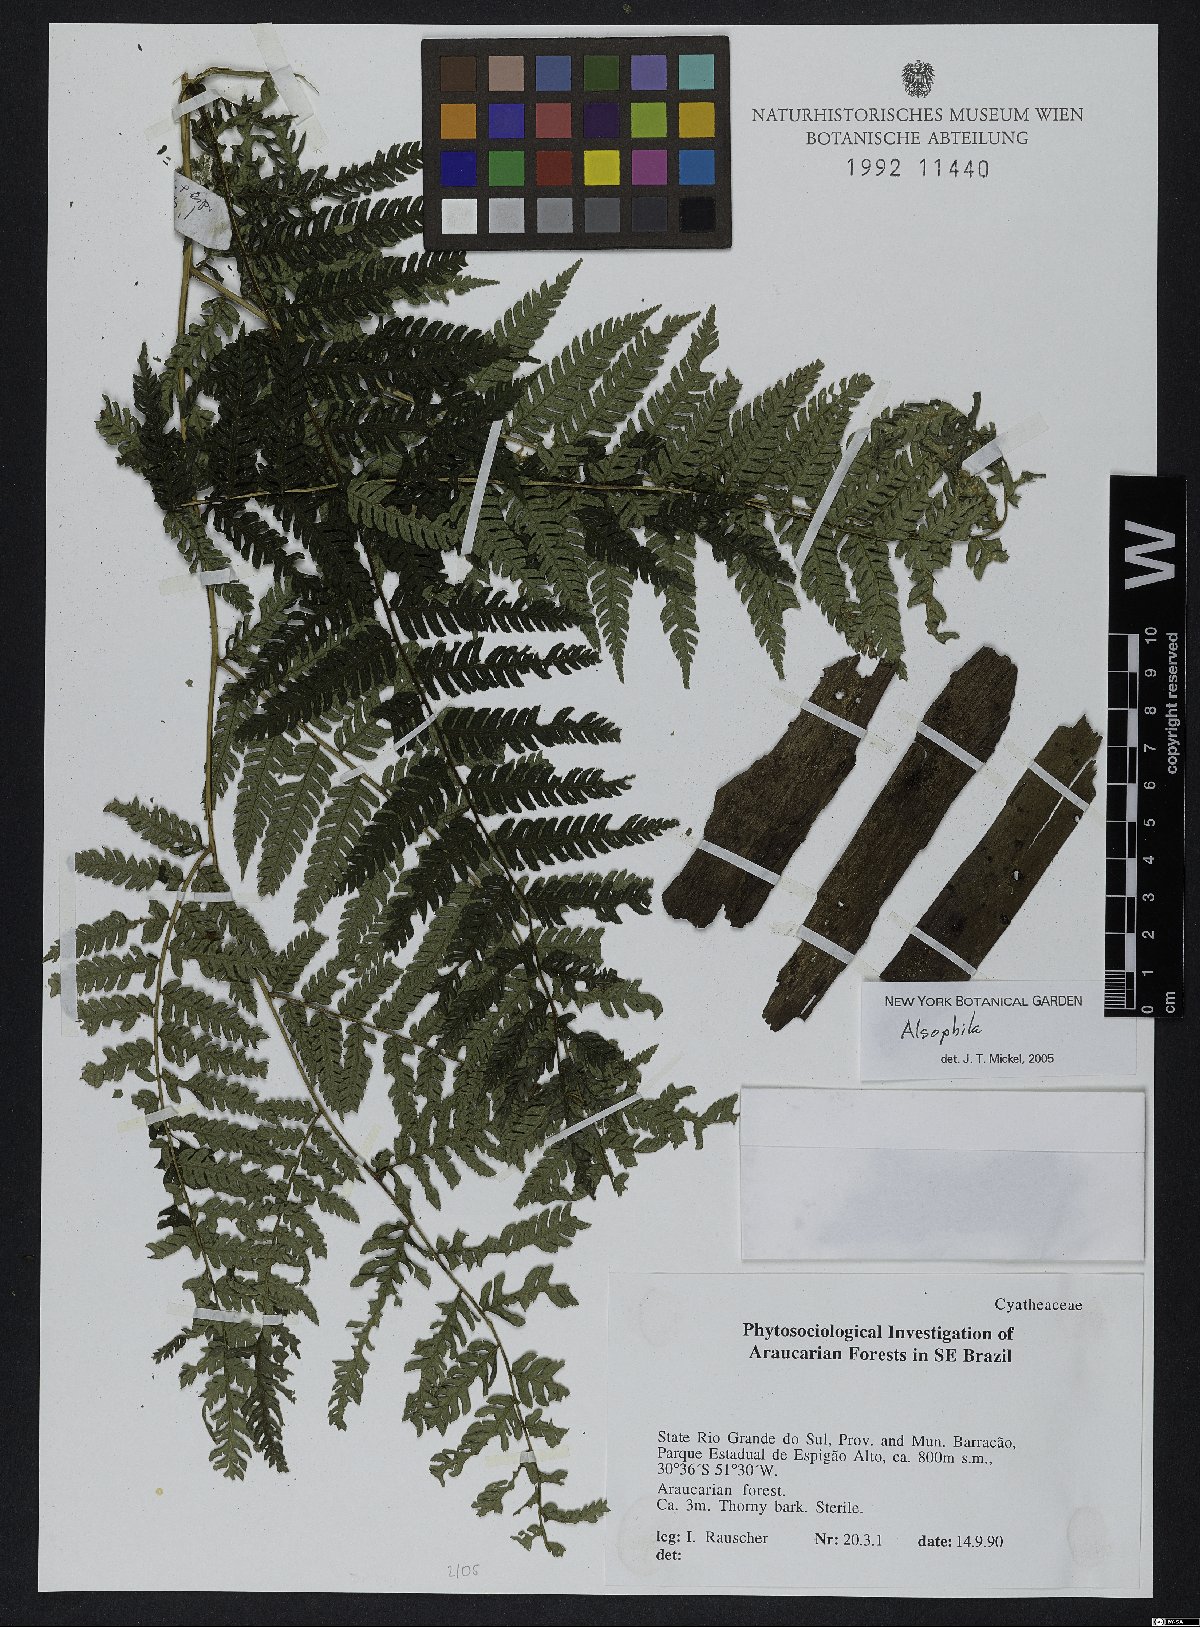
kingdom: Plantae
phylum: Tracheophyta
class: Polypodiopsida
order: Cyatheales
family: Cyatheaceae
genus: Alsophila
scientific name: Alsophila
